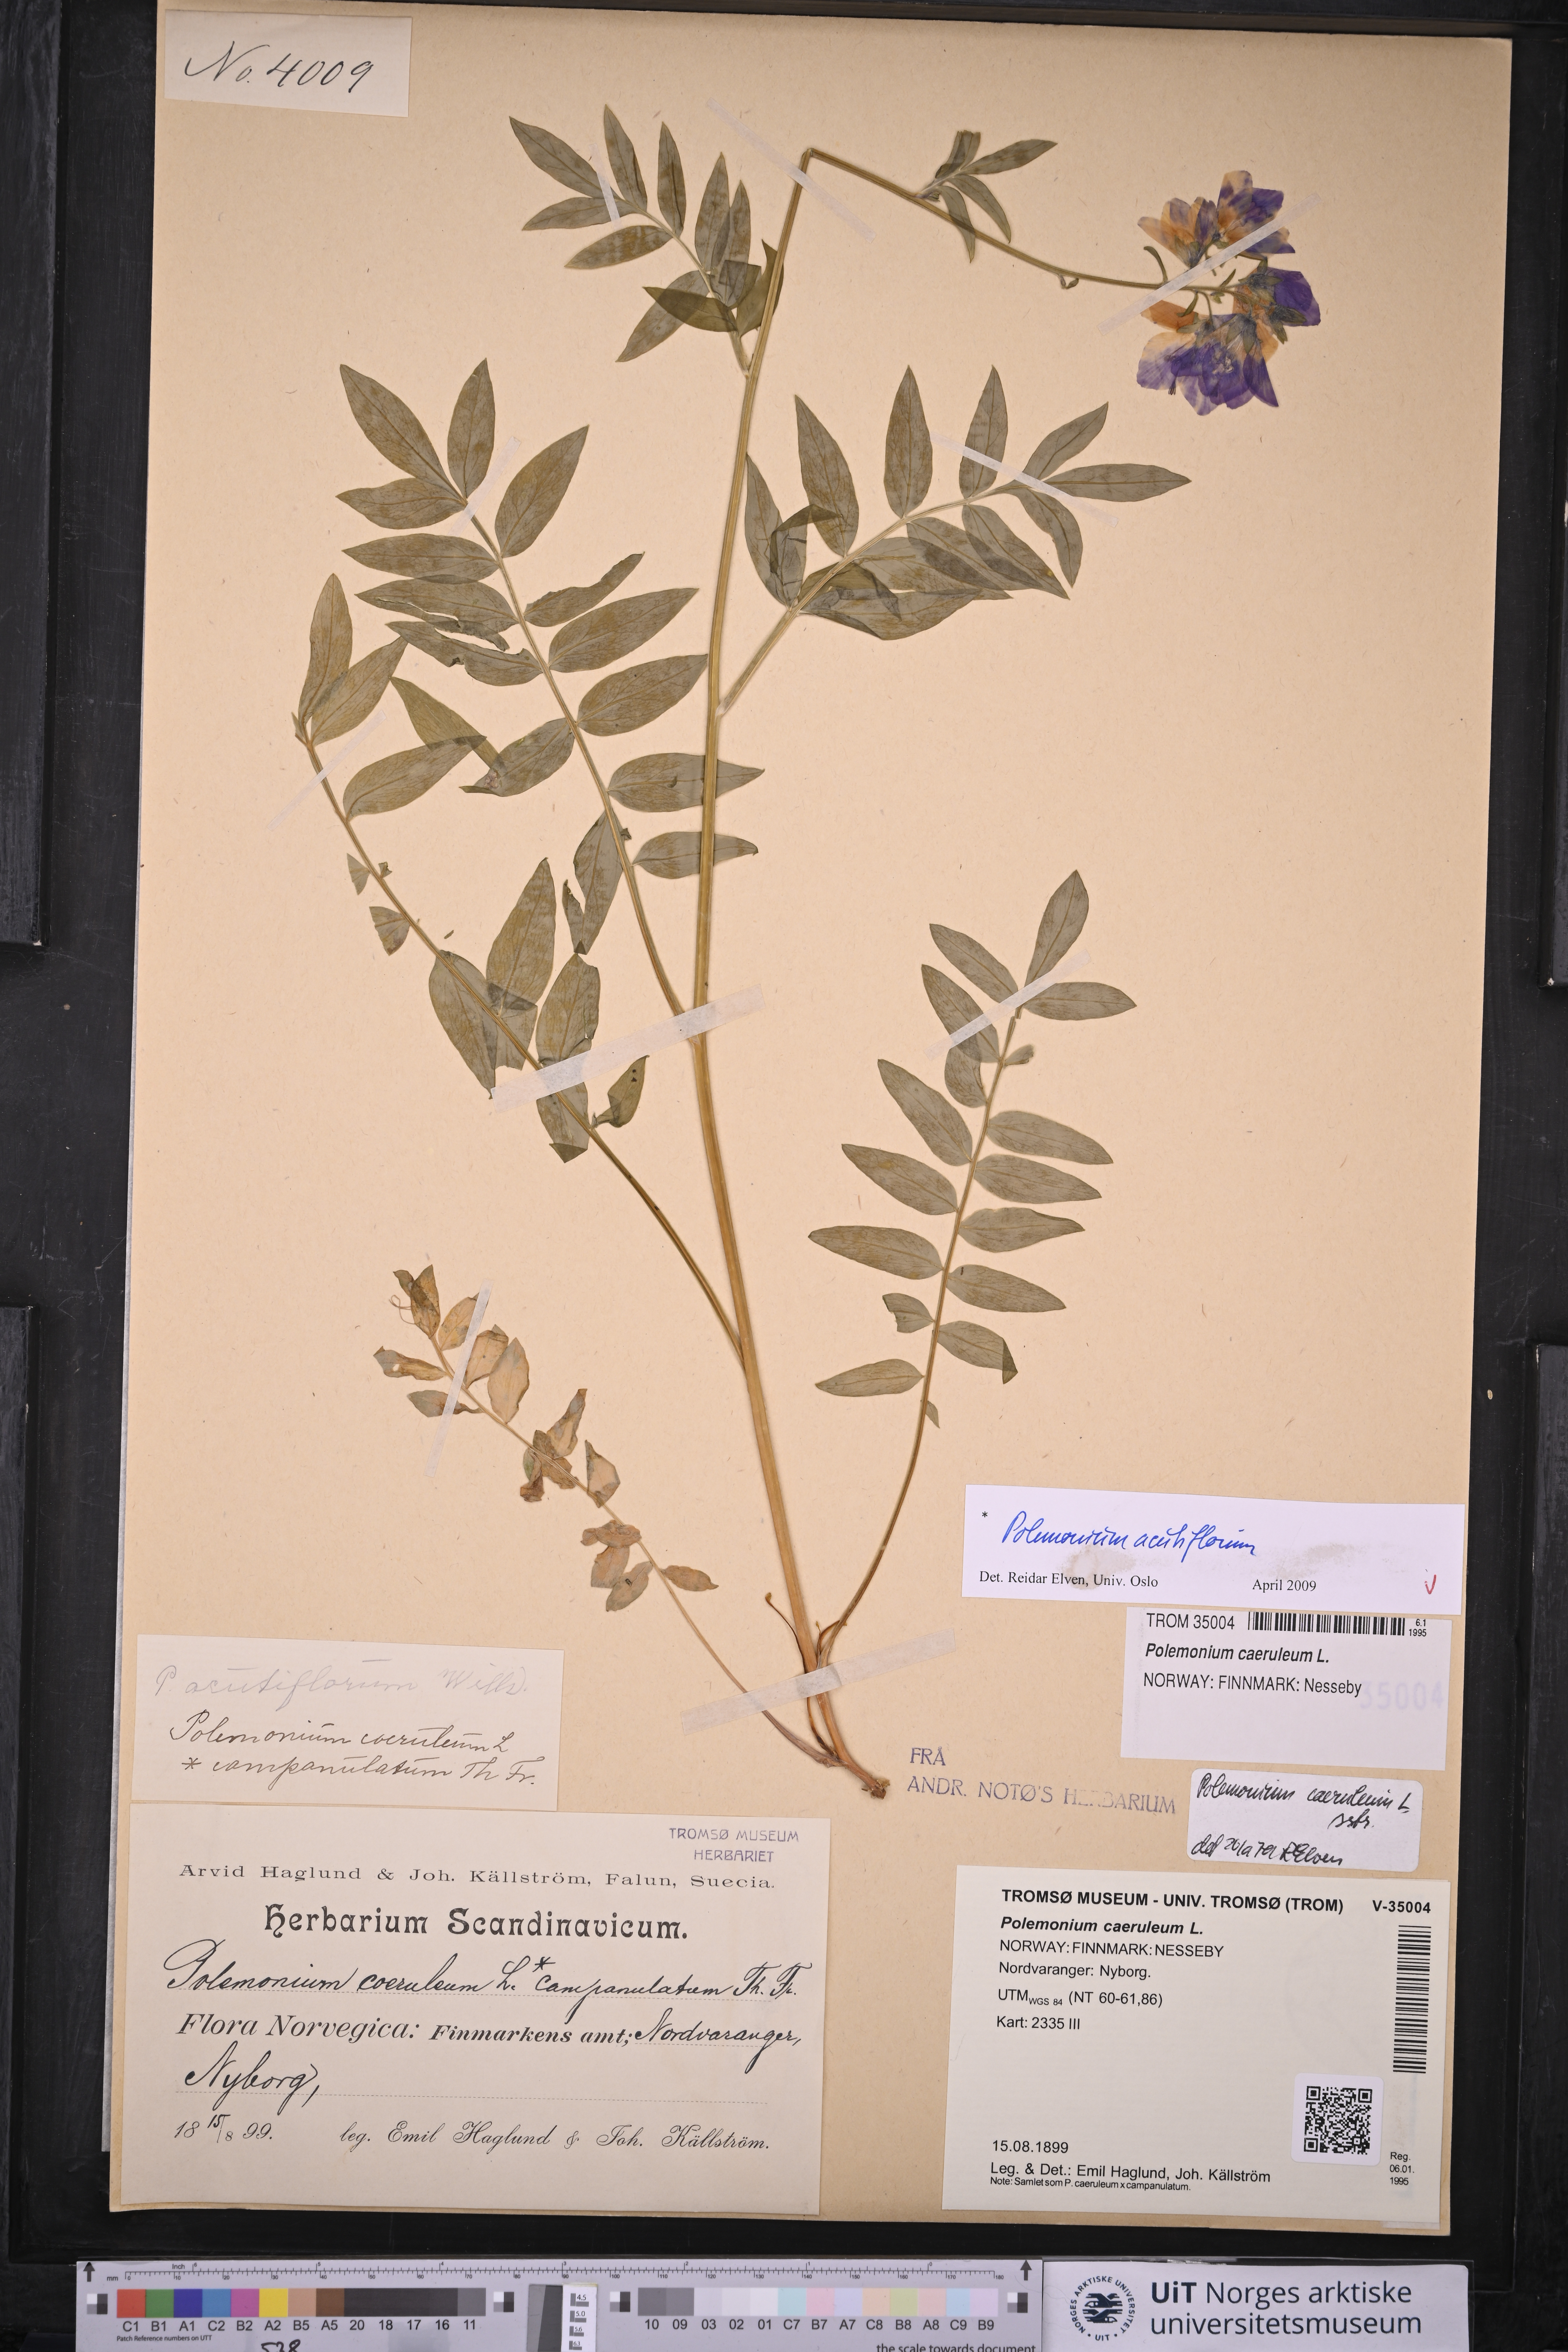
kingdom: Plantae
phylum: Tracheophyta
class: Magnoliopsida
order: Ericales
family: Polemoniaceae
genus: Polemonium
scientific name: Polemonium villosum
